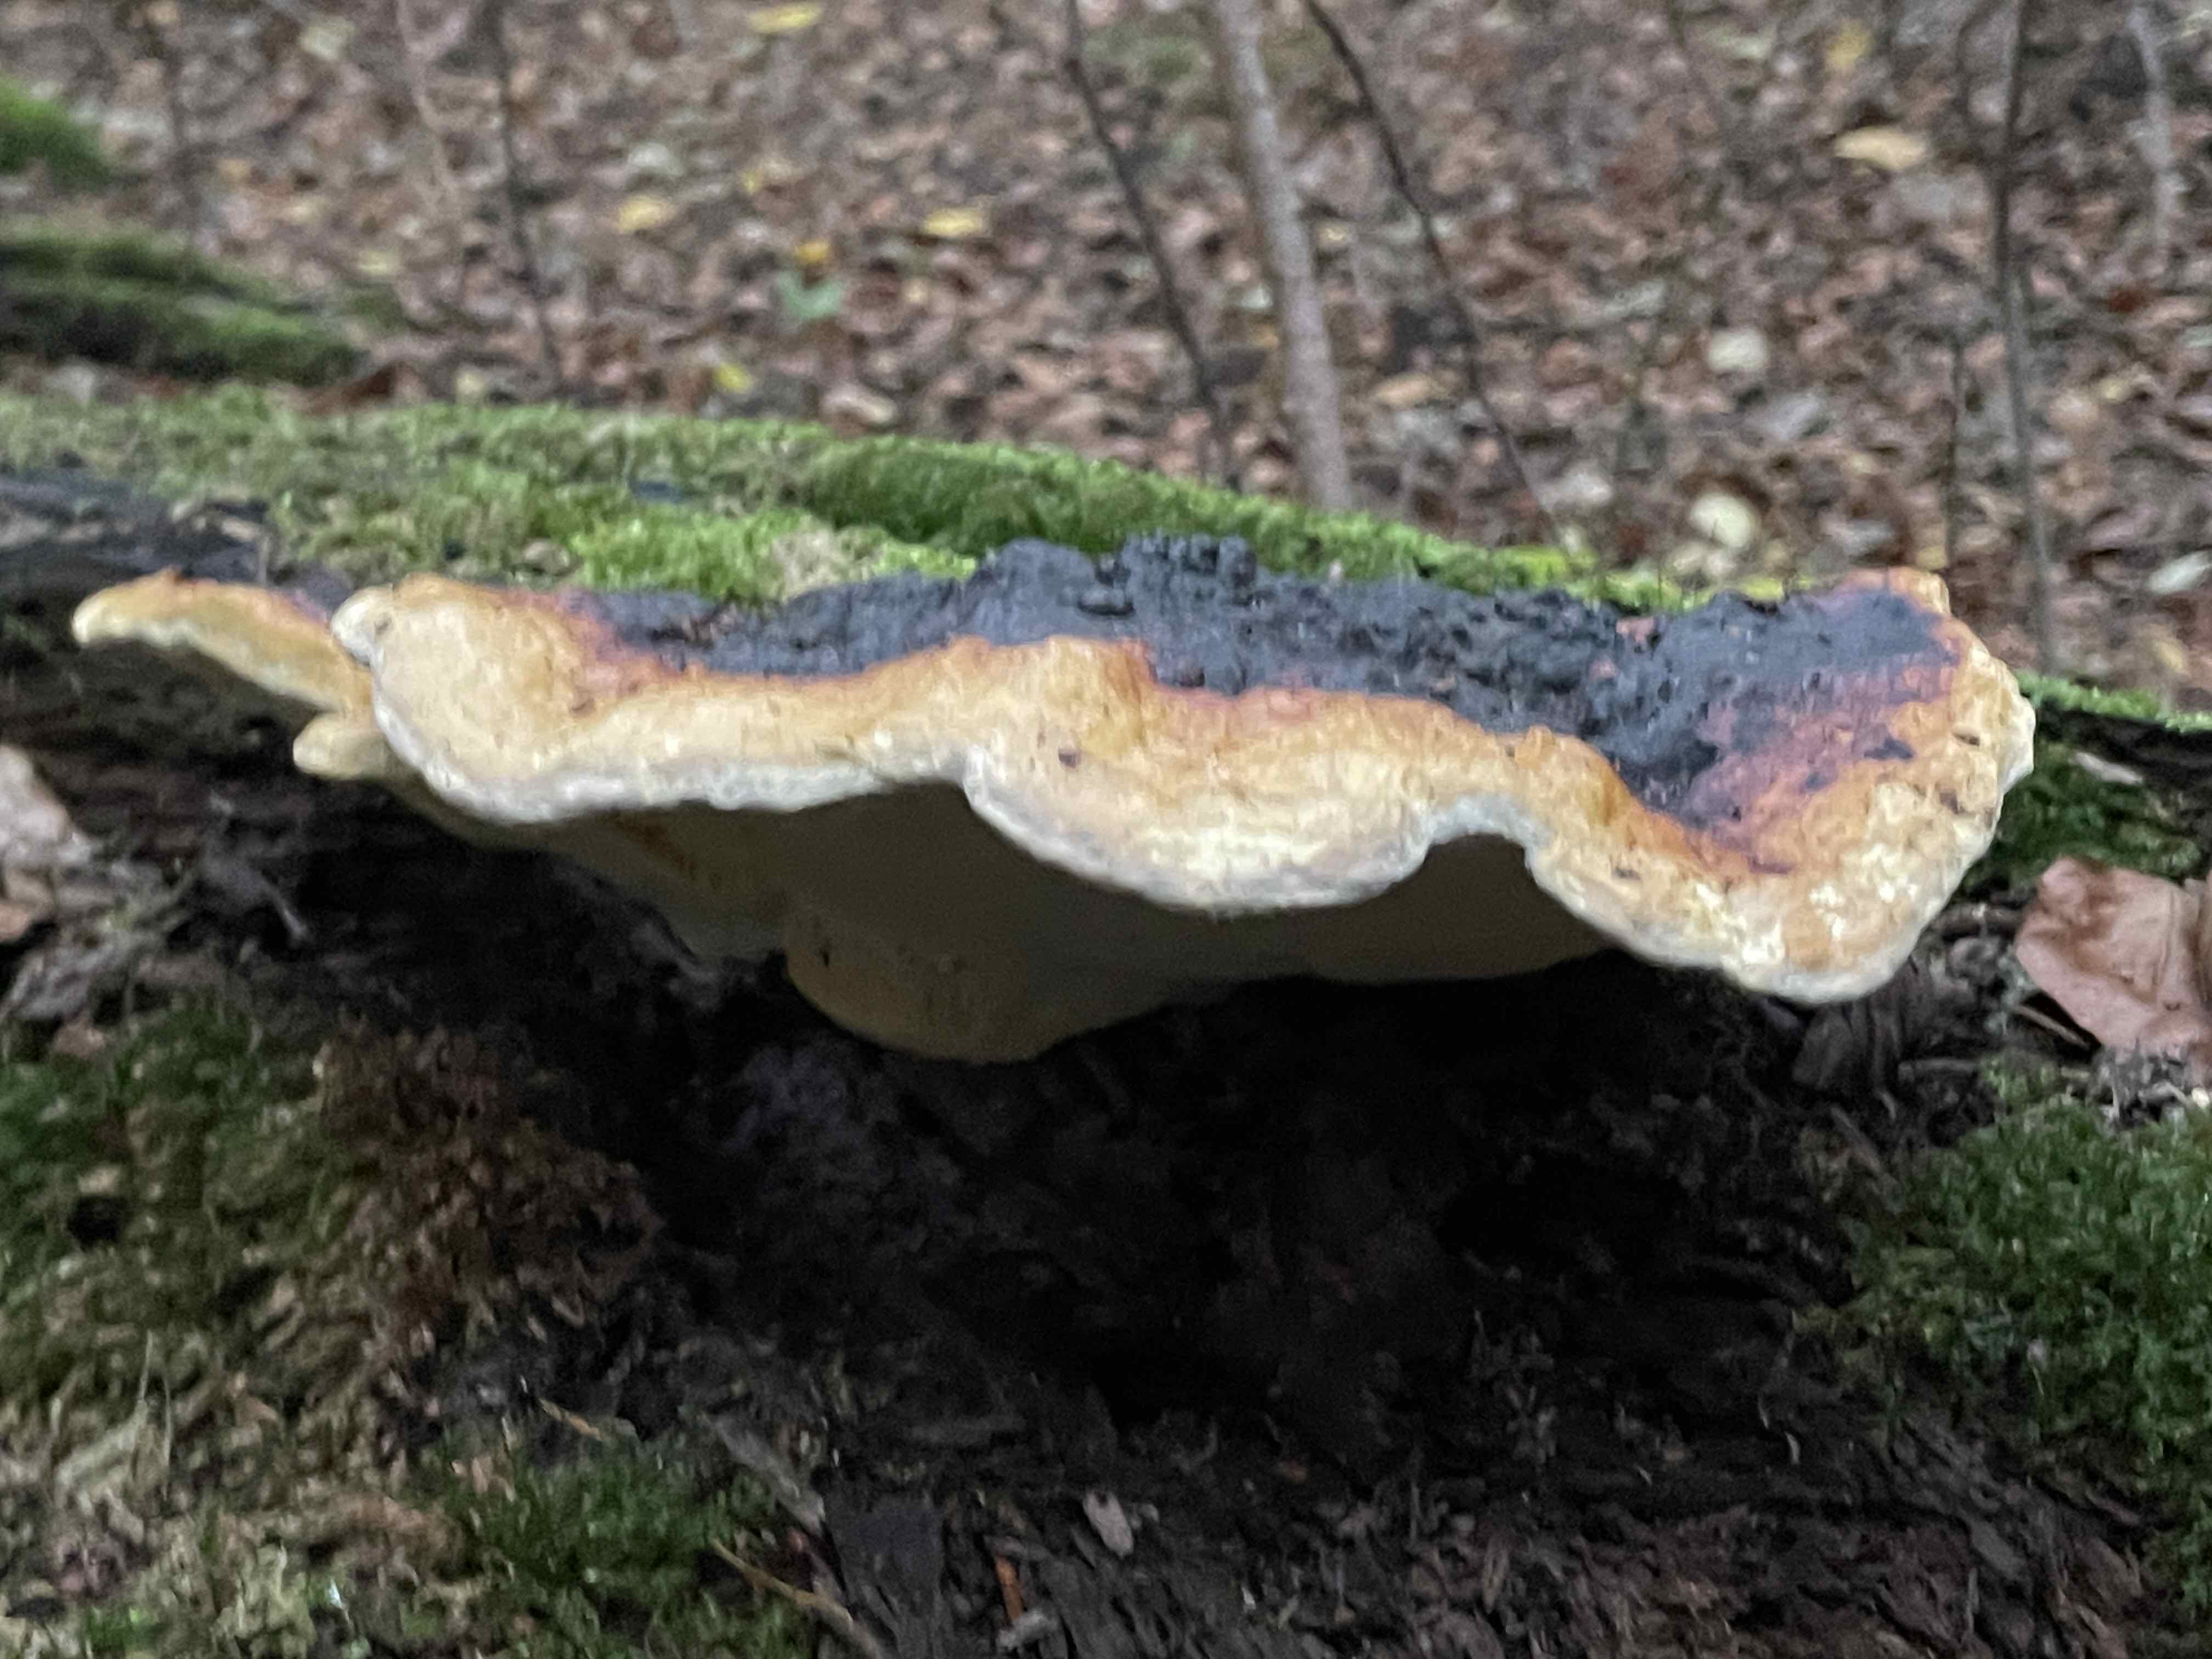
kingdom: Fungi
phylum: Basidiomycota
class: Agaricomycetes
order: Polyporales
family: Fomitopsidaceae
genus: Fomitopsis
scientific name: Fomitopsis pinicola
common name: randbæltet hovporesvamp
